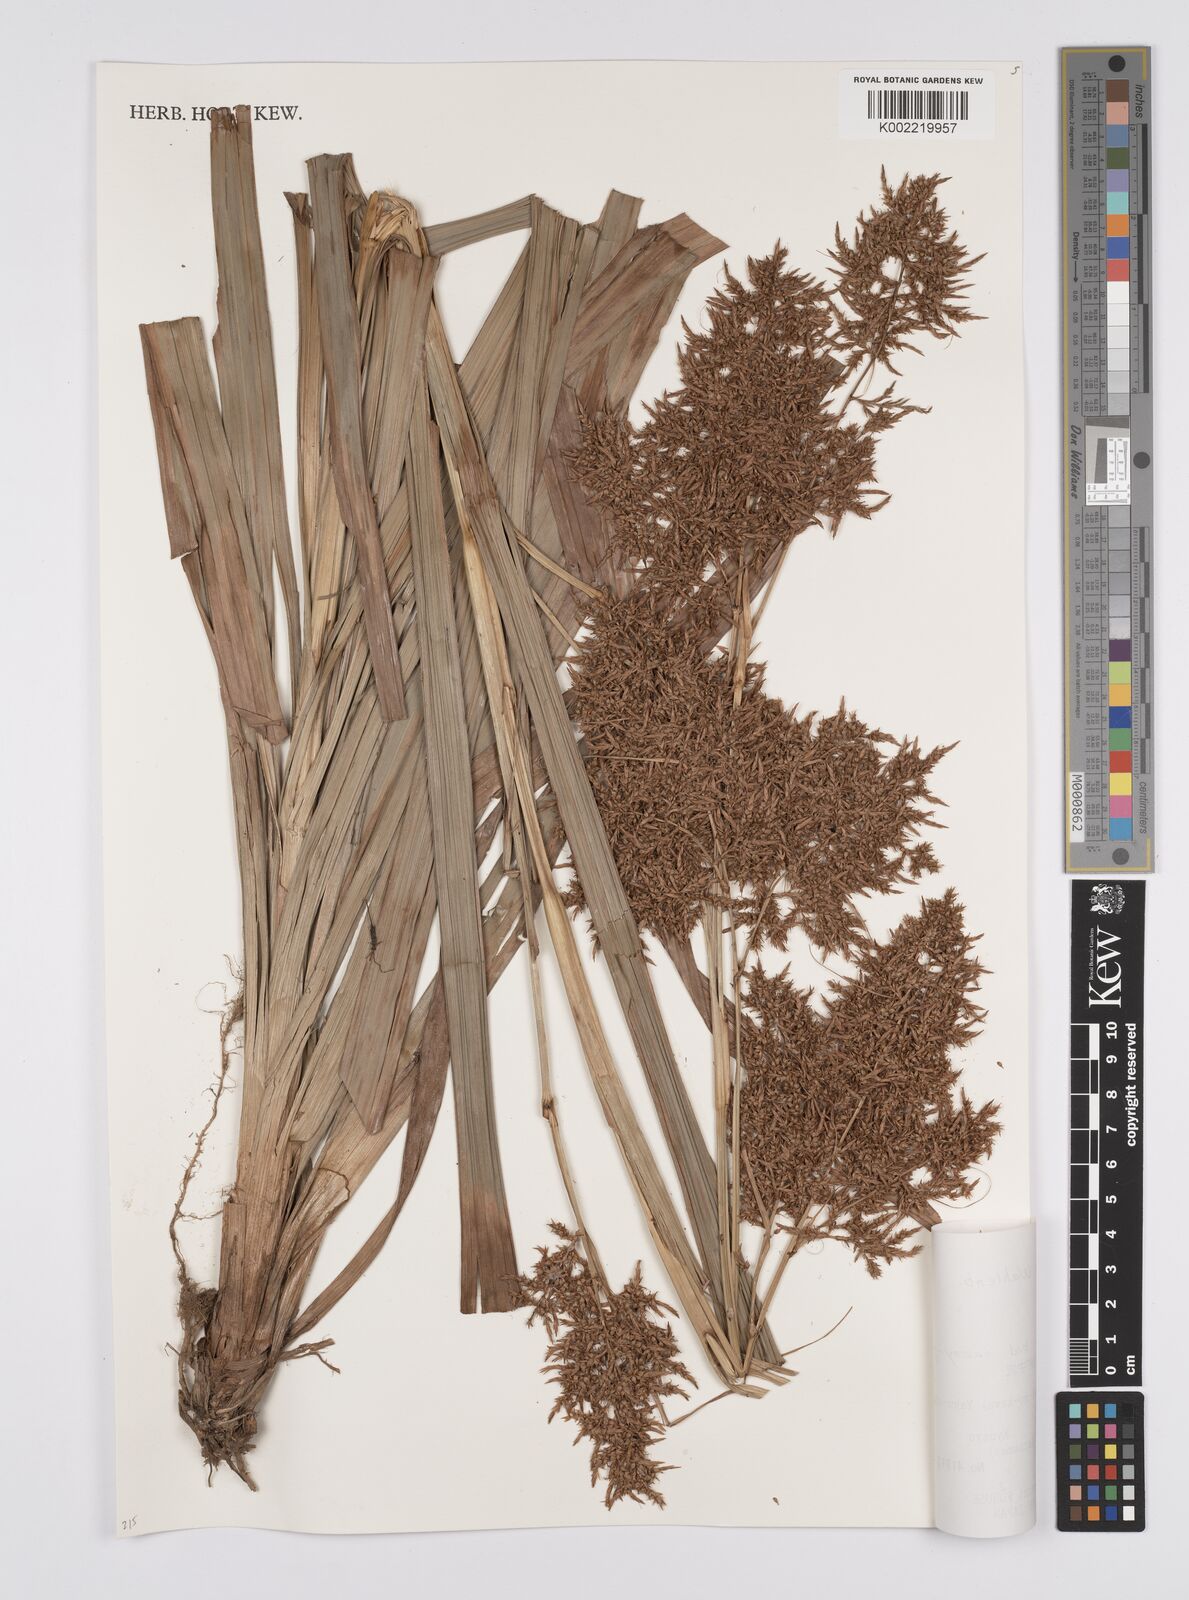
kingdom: Plantae
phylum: Tracheophyta
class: Liliopsida
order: Poales
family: Cyperaceae
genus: Carex
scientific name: Carex cruciata
